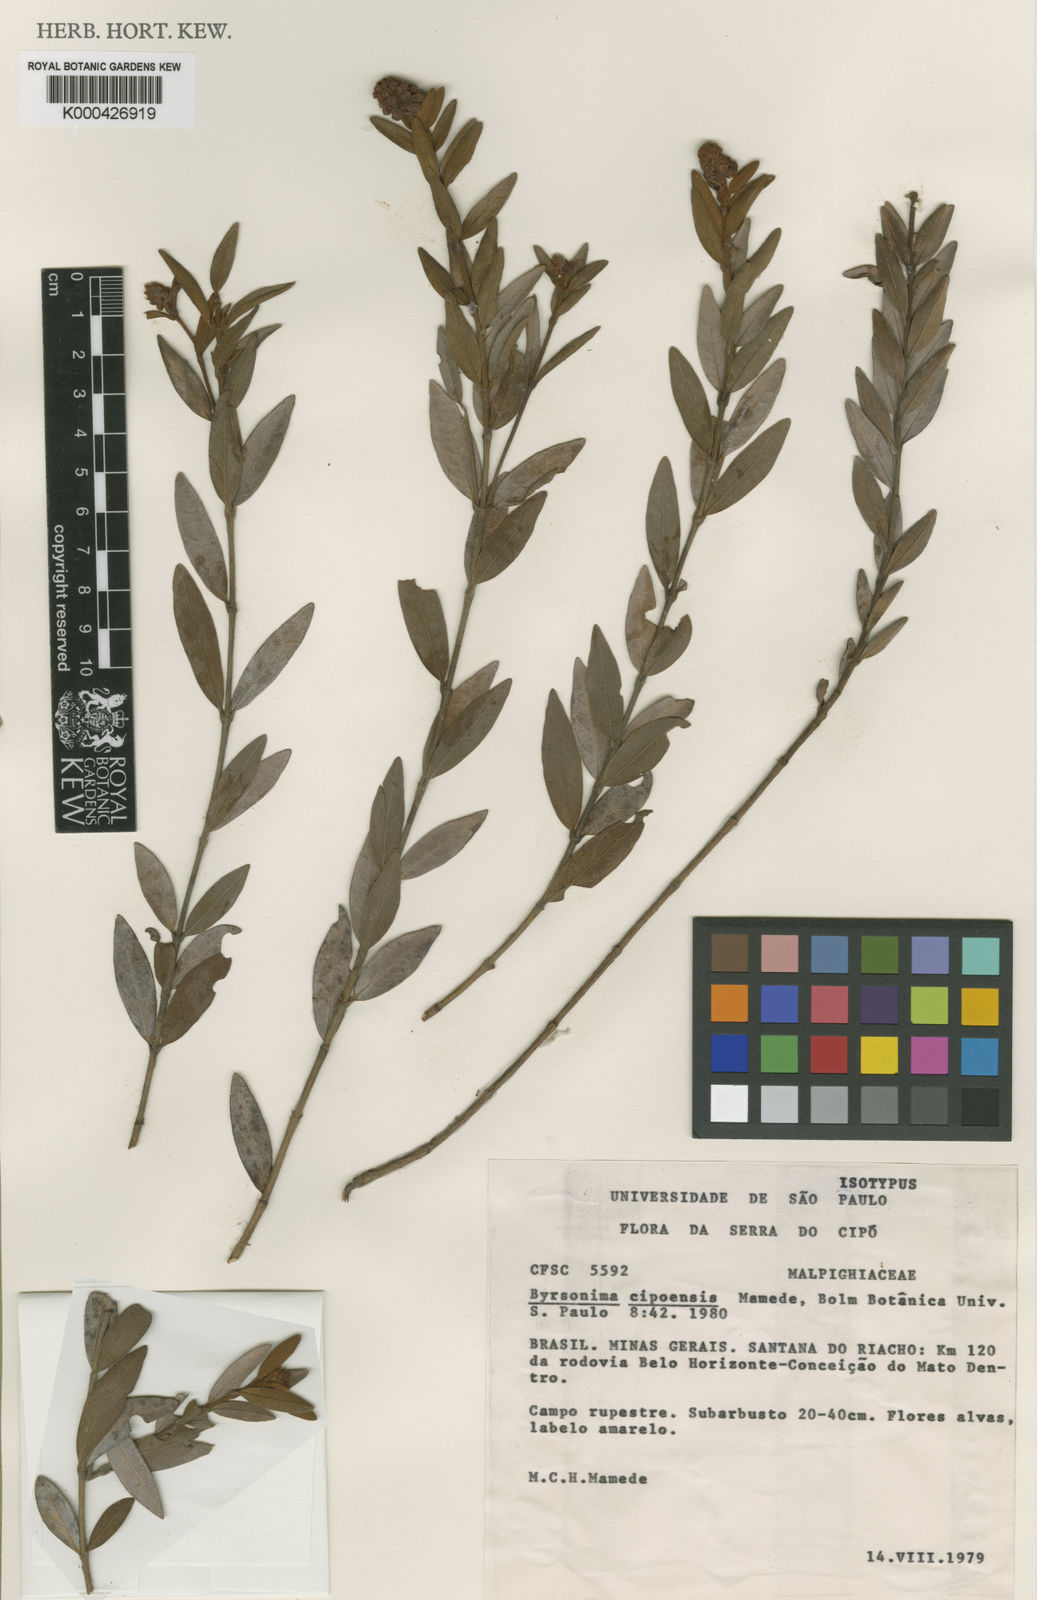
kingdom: Plantae
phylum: Tracheophyta
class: Magnoliopsida
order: Malpighiales
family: Malpighiaceae
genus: Byrsonima
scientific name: Byrsonima cipoensis
